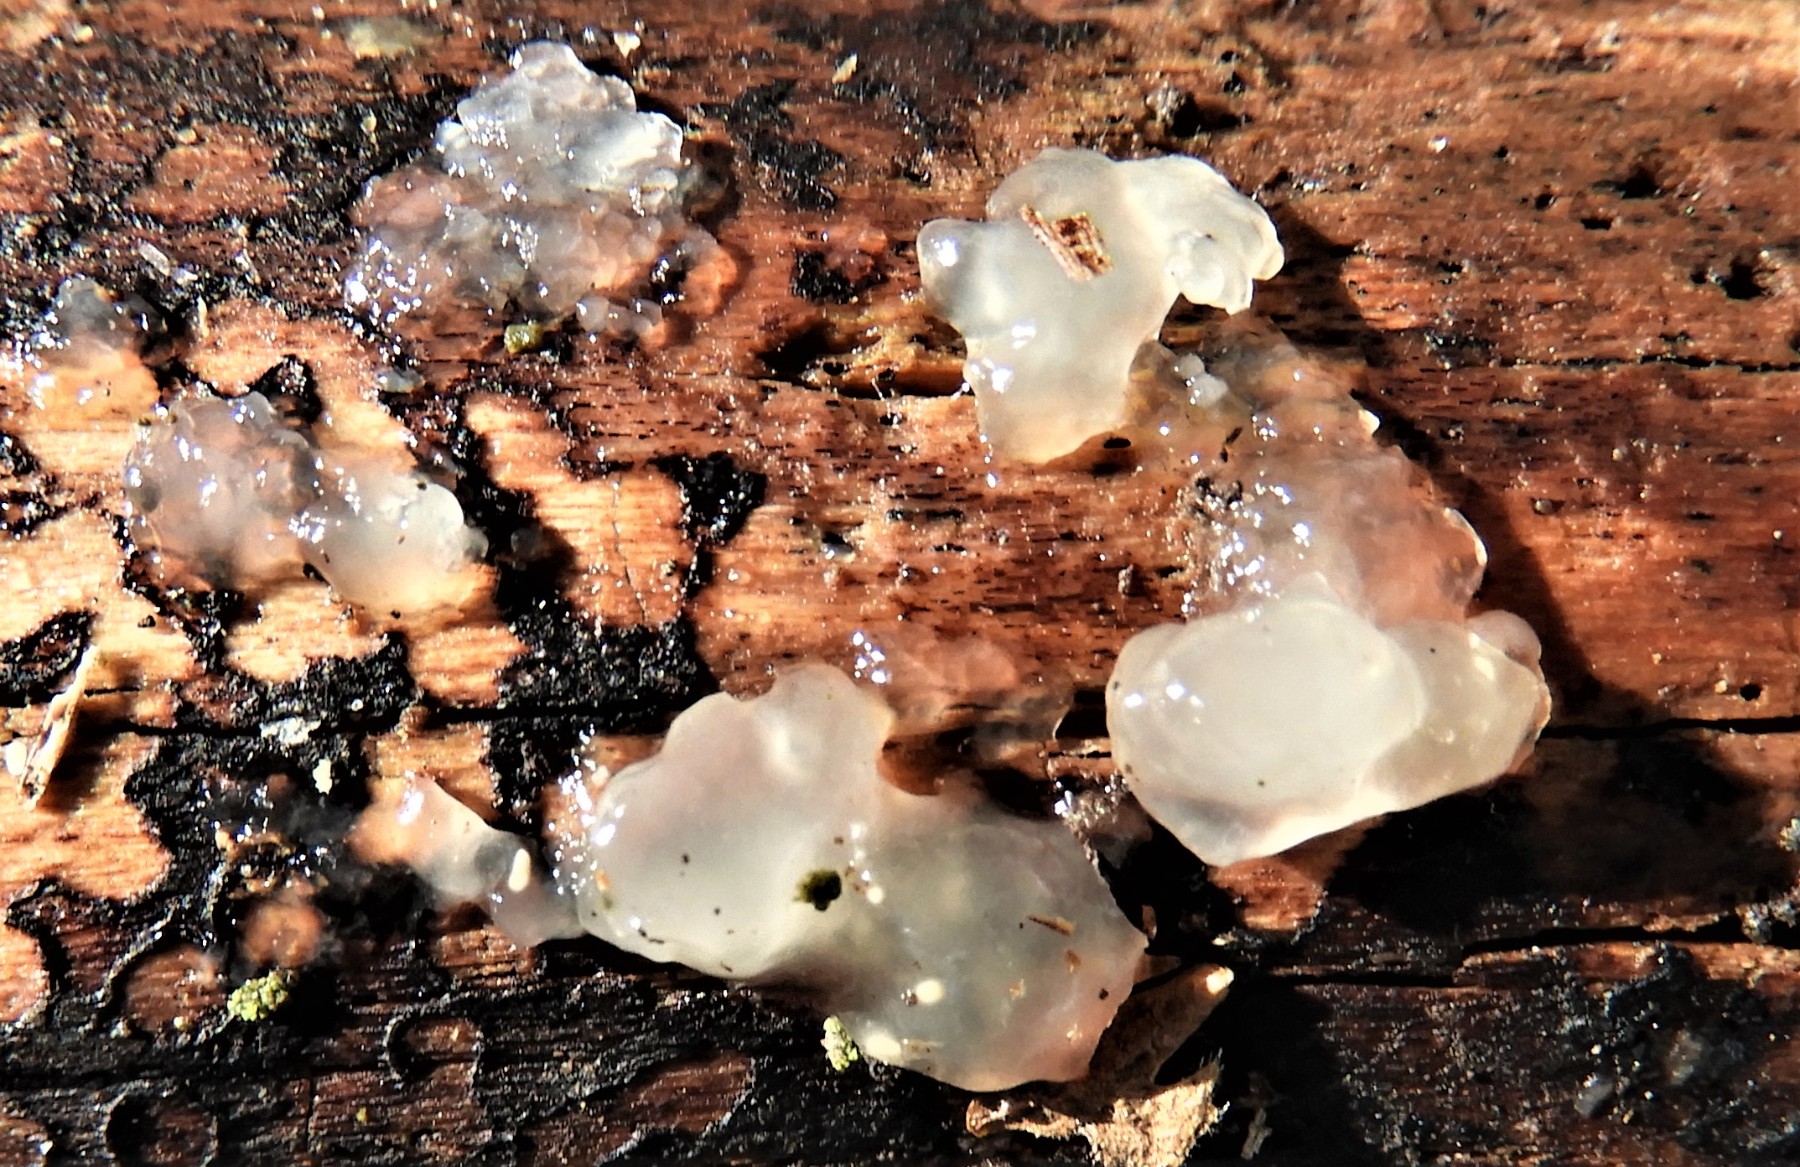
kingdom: Fungi
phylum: Basidiomycota
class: Agaricomycetes
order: Auriculariales
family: Hyaloriaceae
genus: Myxarium
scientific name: Myxarium nucleatum
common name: klar bævretop
